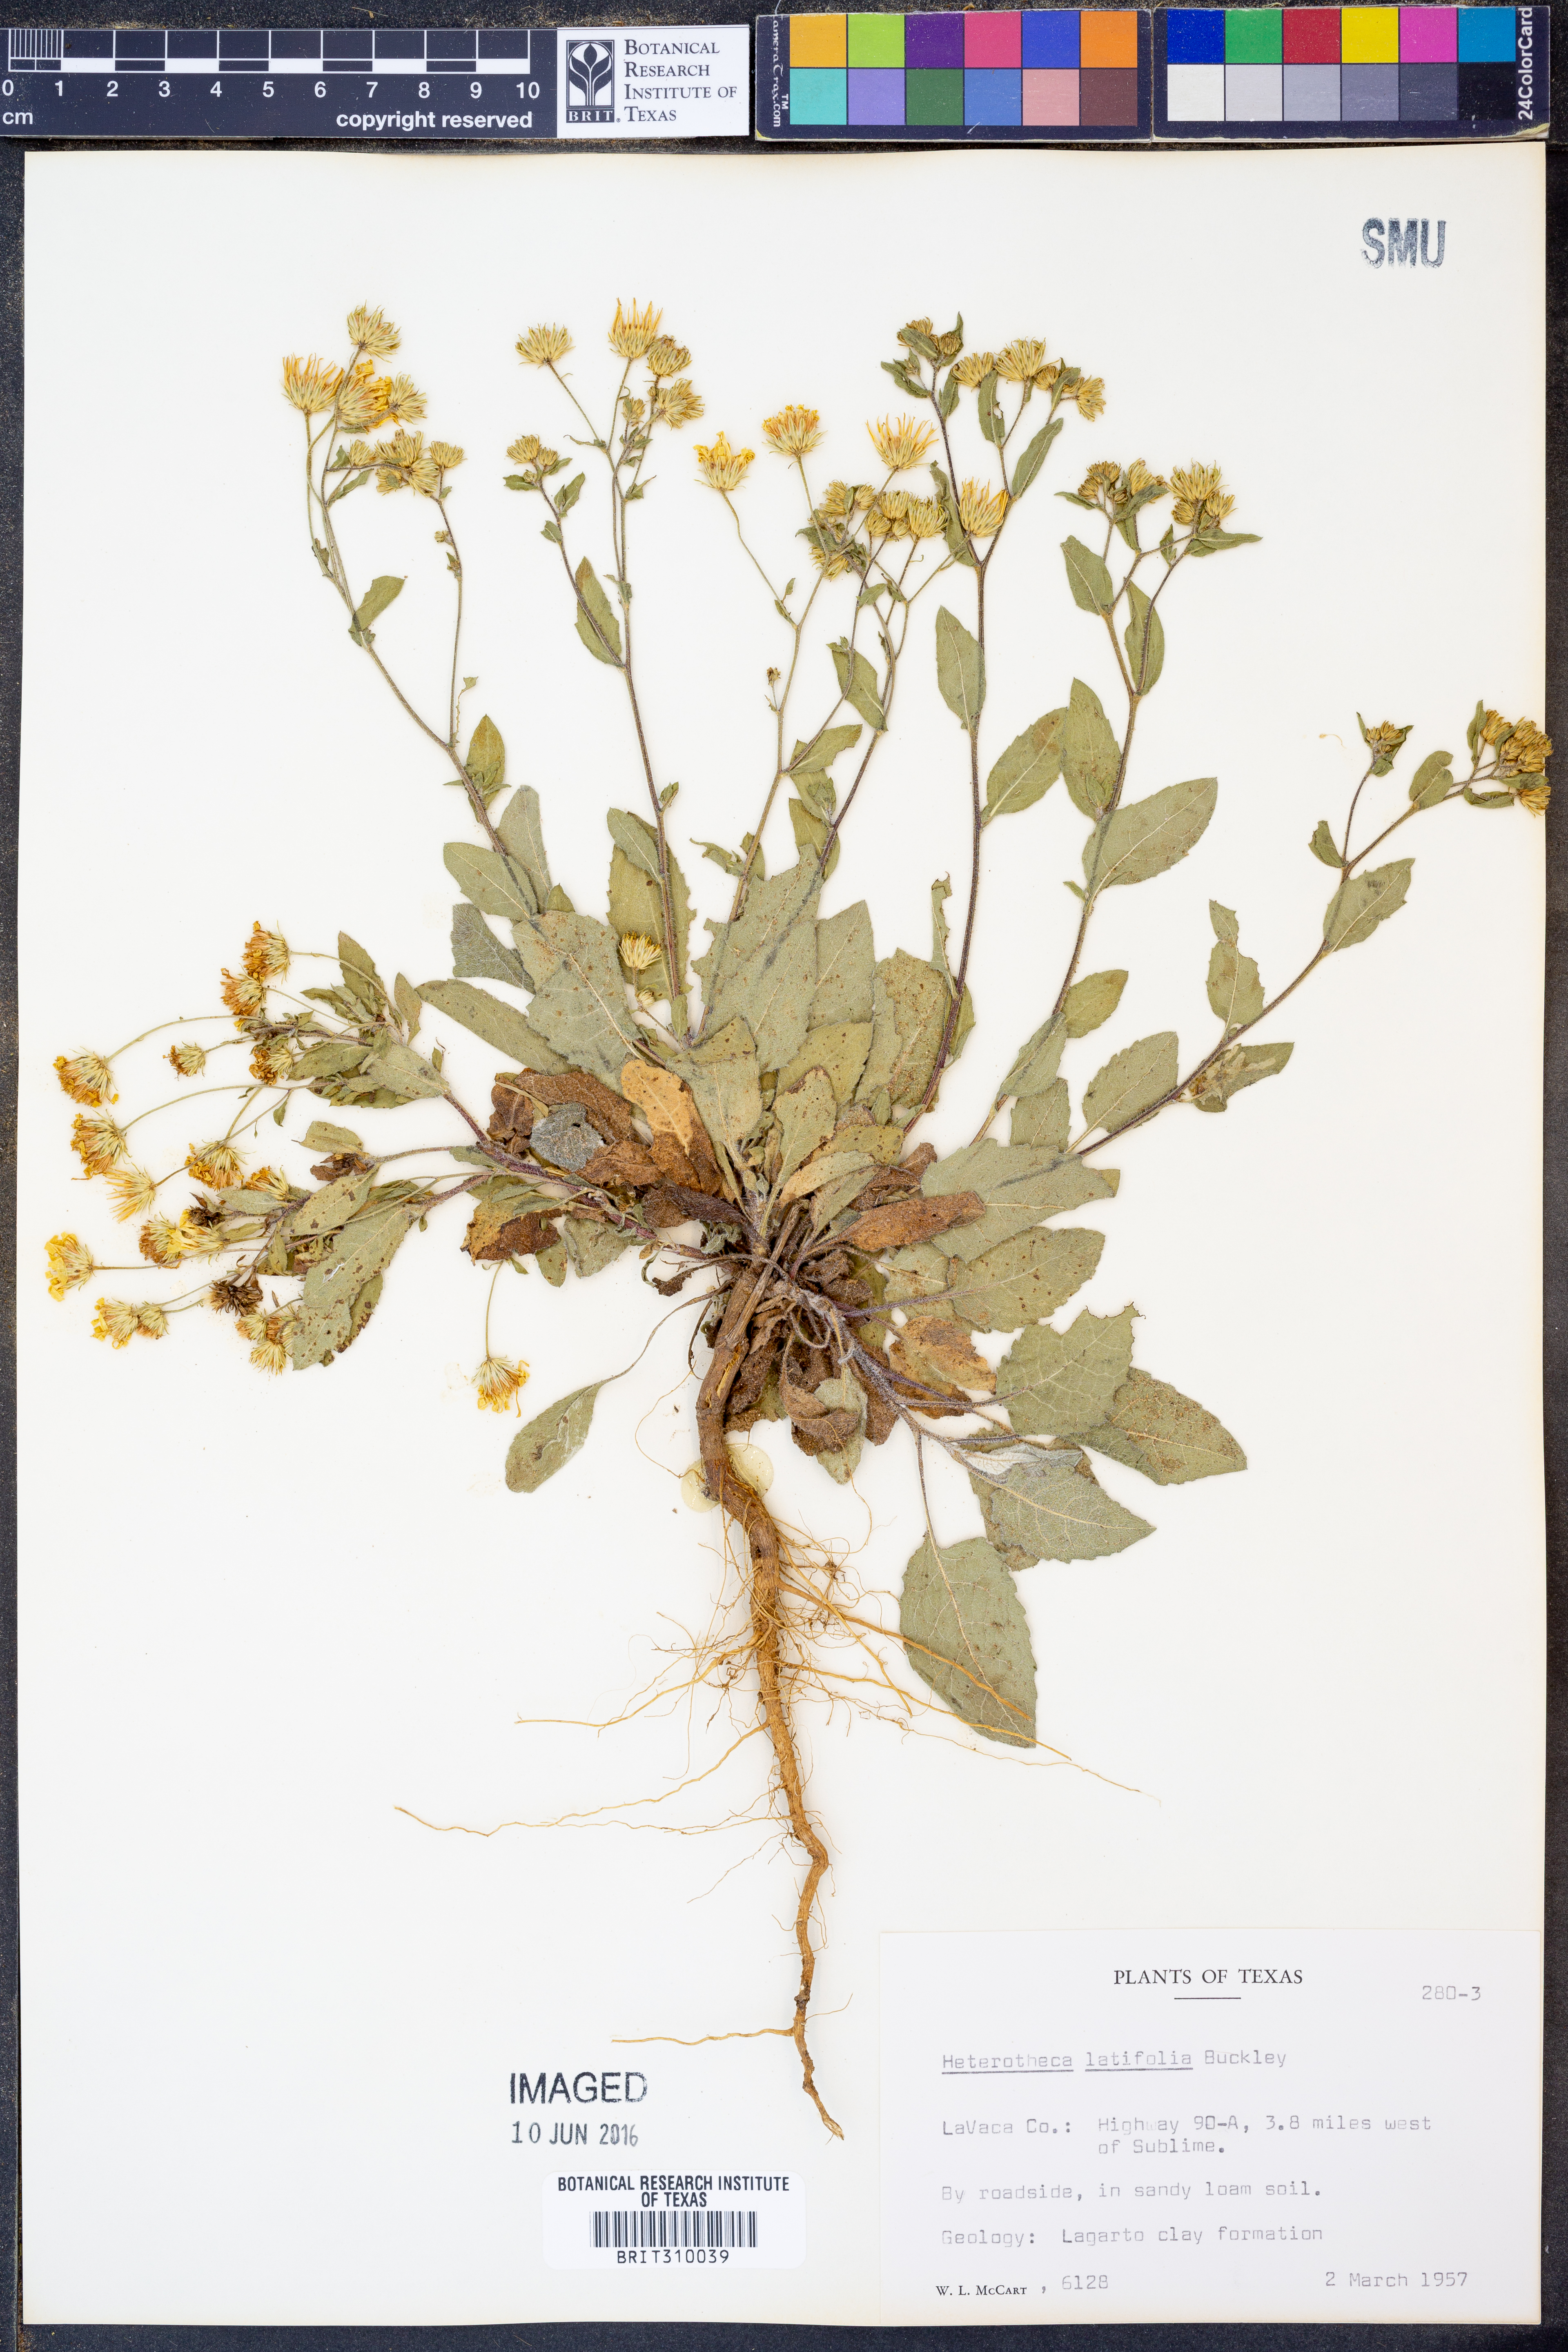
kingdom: Plantae
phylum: Tracheophyta
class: Magnoliopsida
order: Asterales
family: Asteraceae
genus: Heterotheca
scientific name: Heterotheca subaxillaris
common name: Camphorweed
